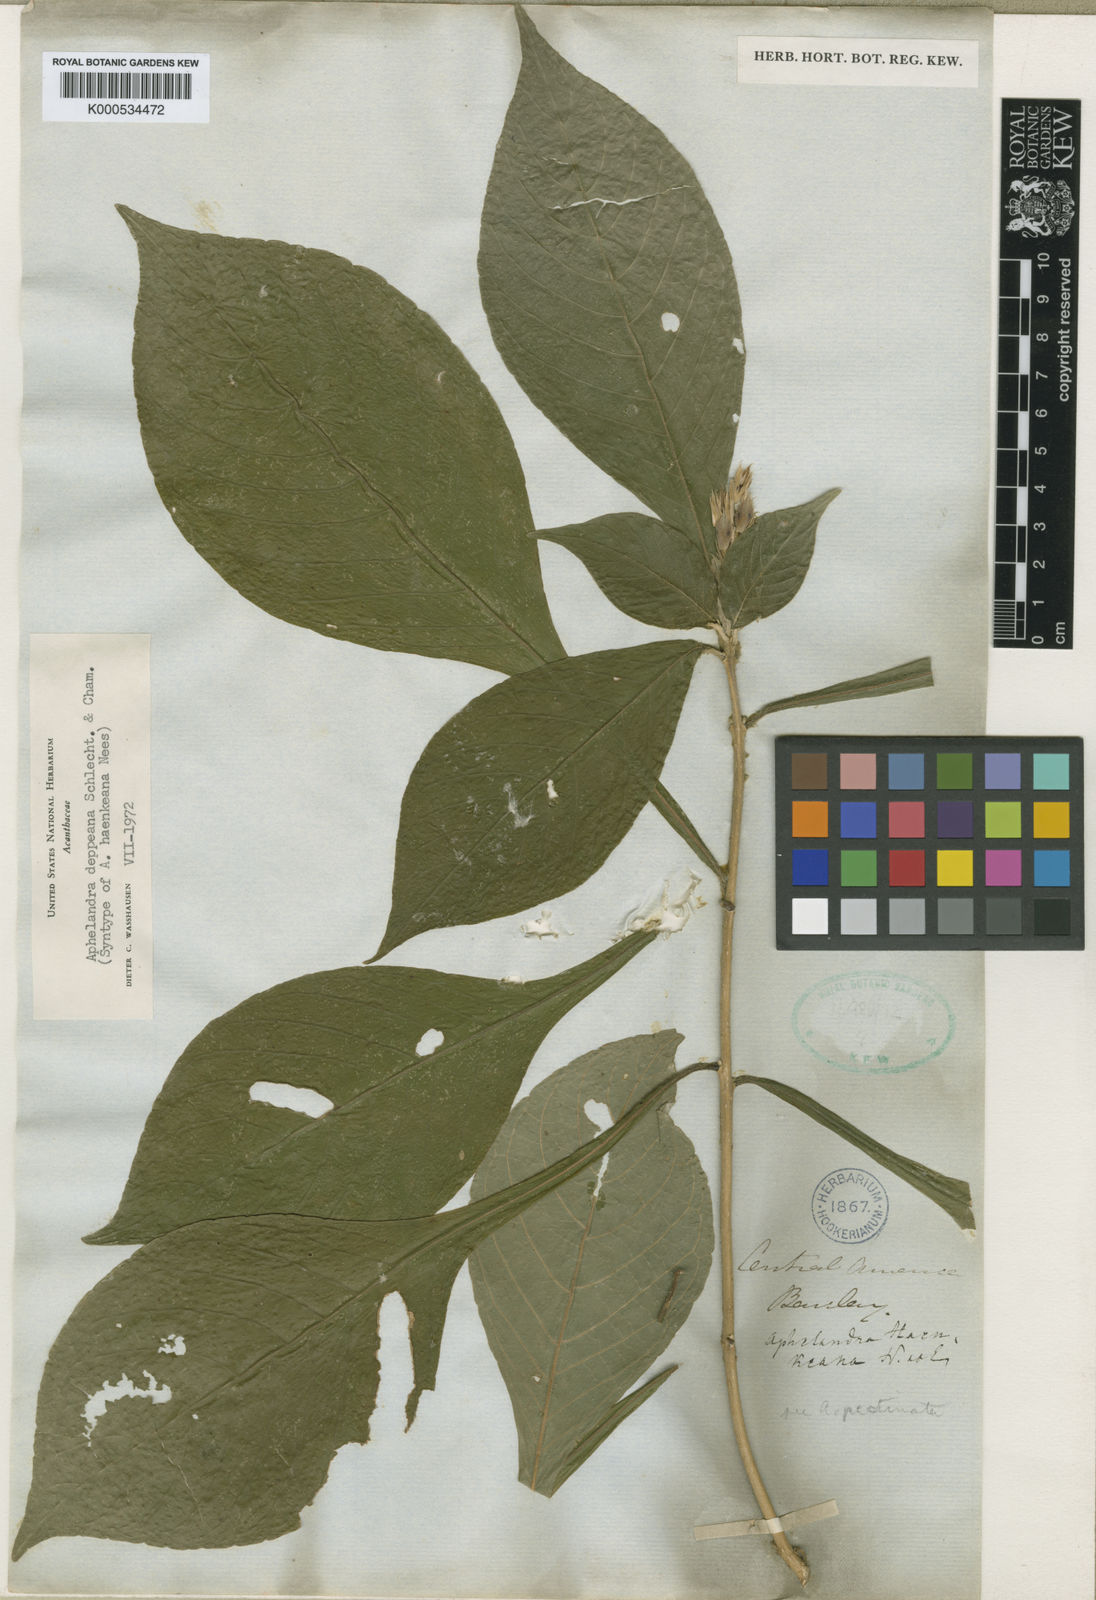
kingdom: Plantae
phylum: Tracheophyta
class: Magnoliopsida
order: Lamiales
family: Acanthaceae
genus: Aphelandra
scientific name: Aphelandra scabra
